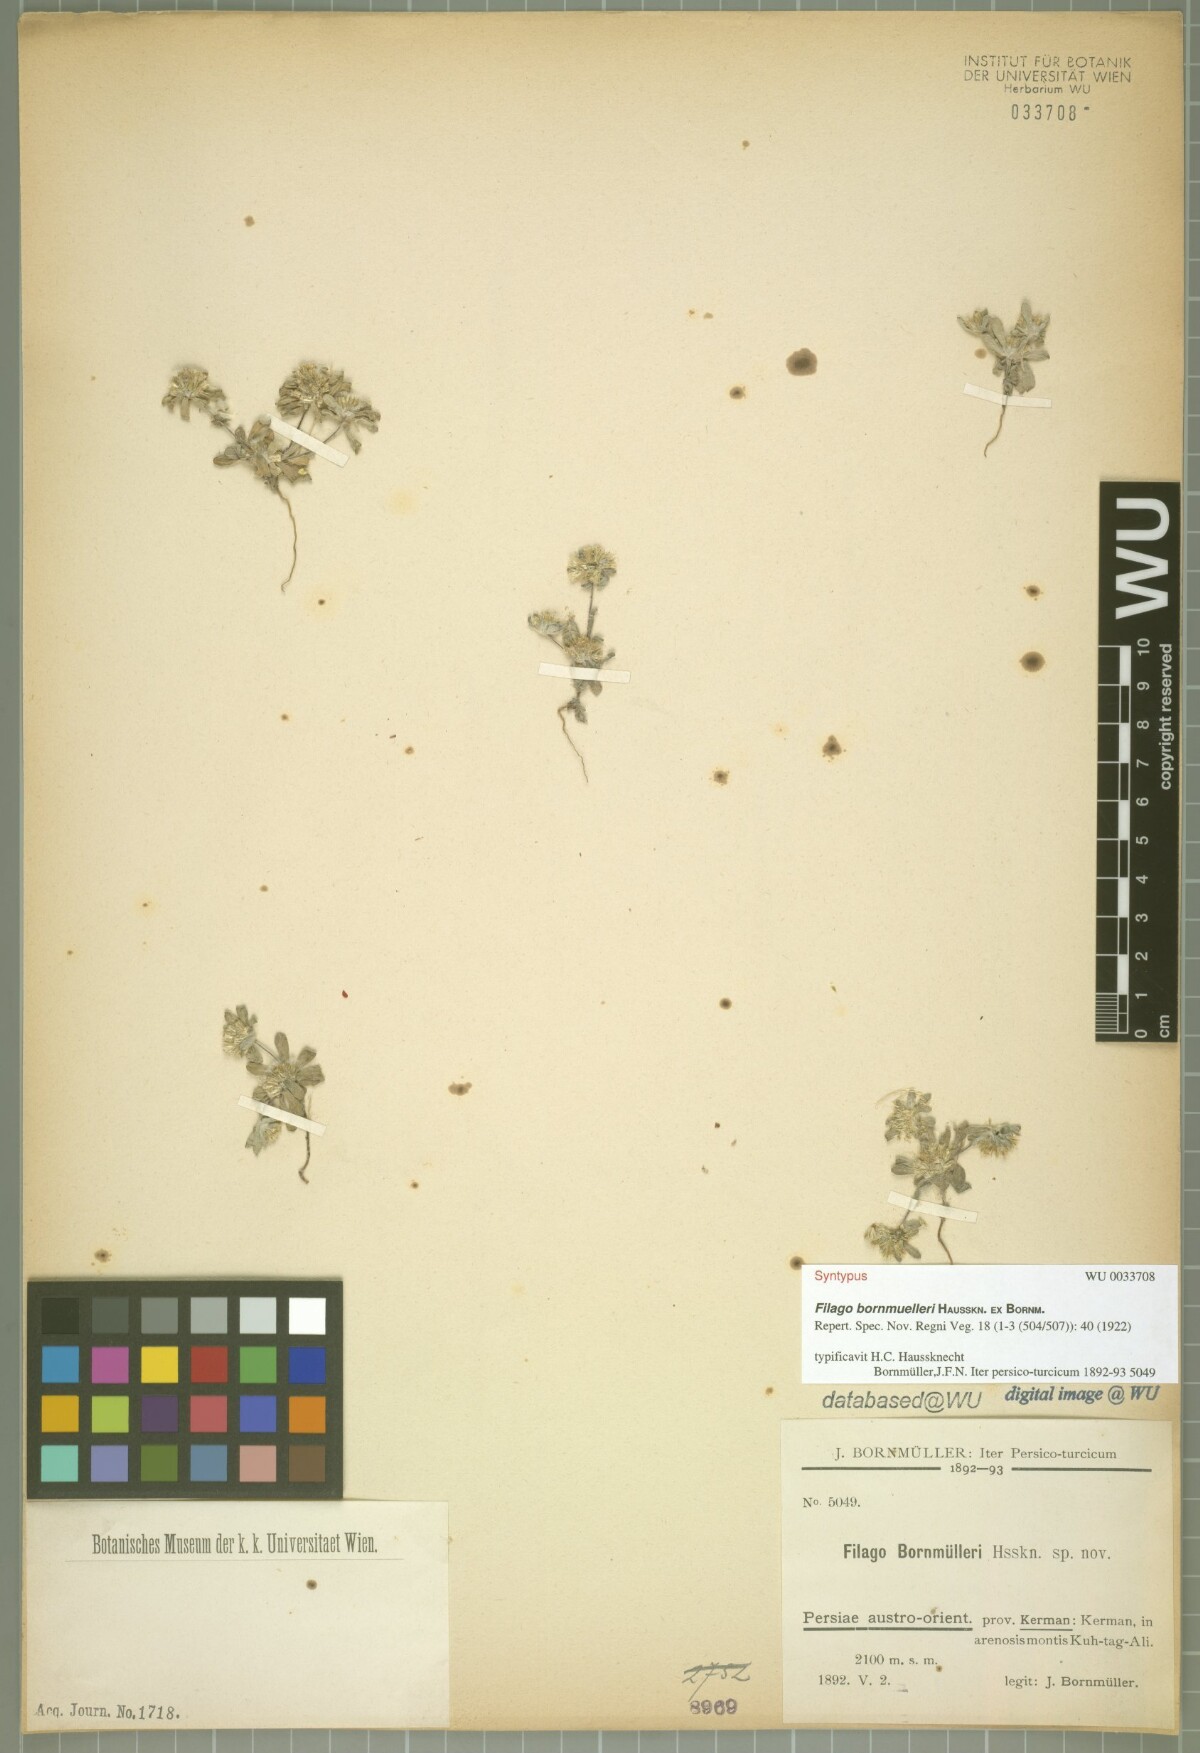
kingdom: Plantae
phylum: Tracheophyta
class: Magnoliopsida
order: Asterales
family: Asteraceae
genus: Filago
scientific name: Filago hurdwarica
